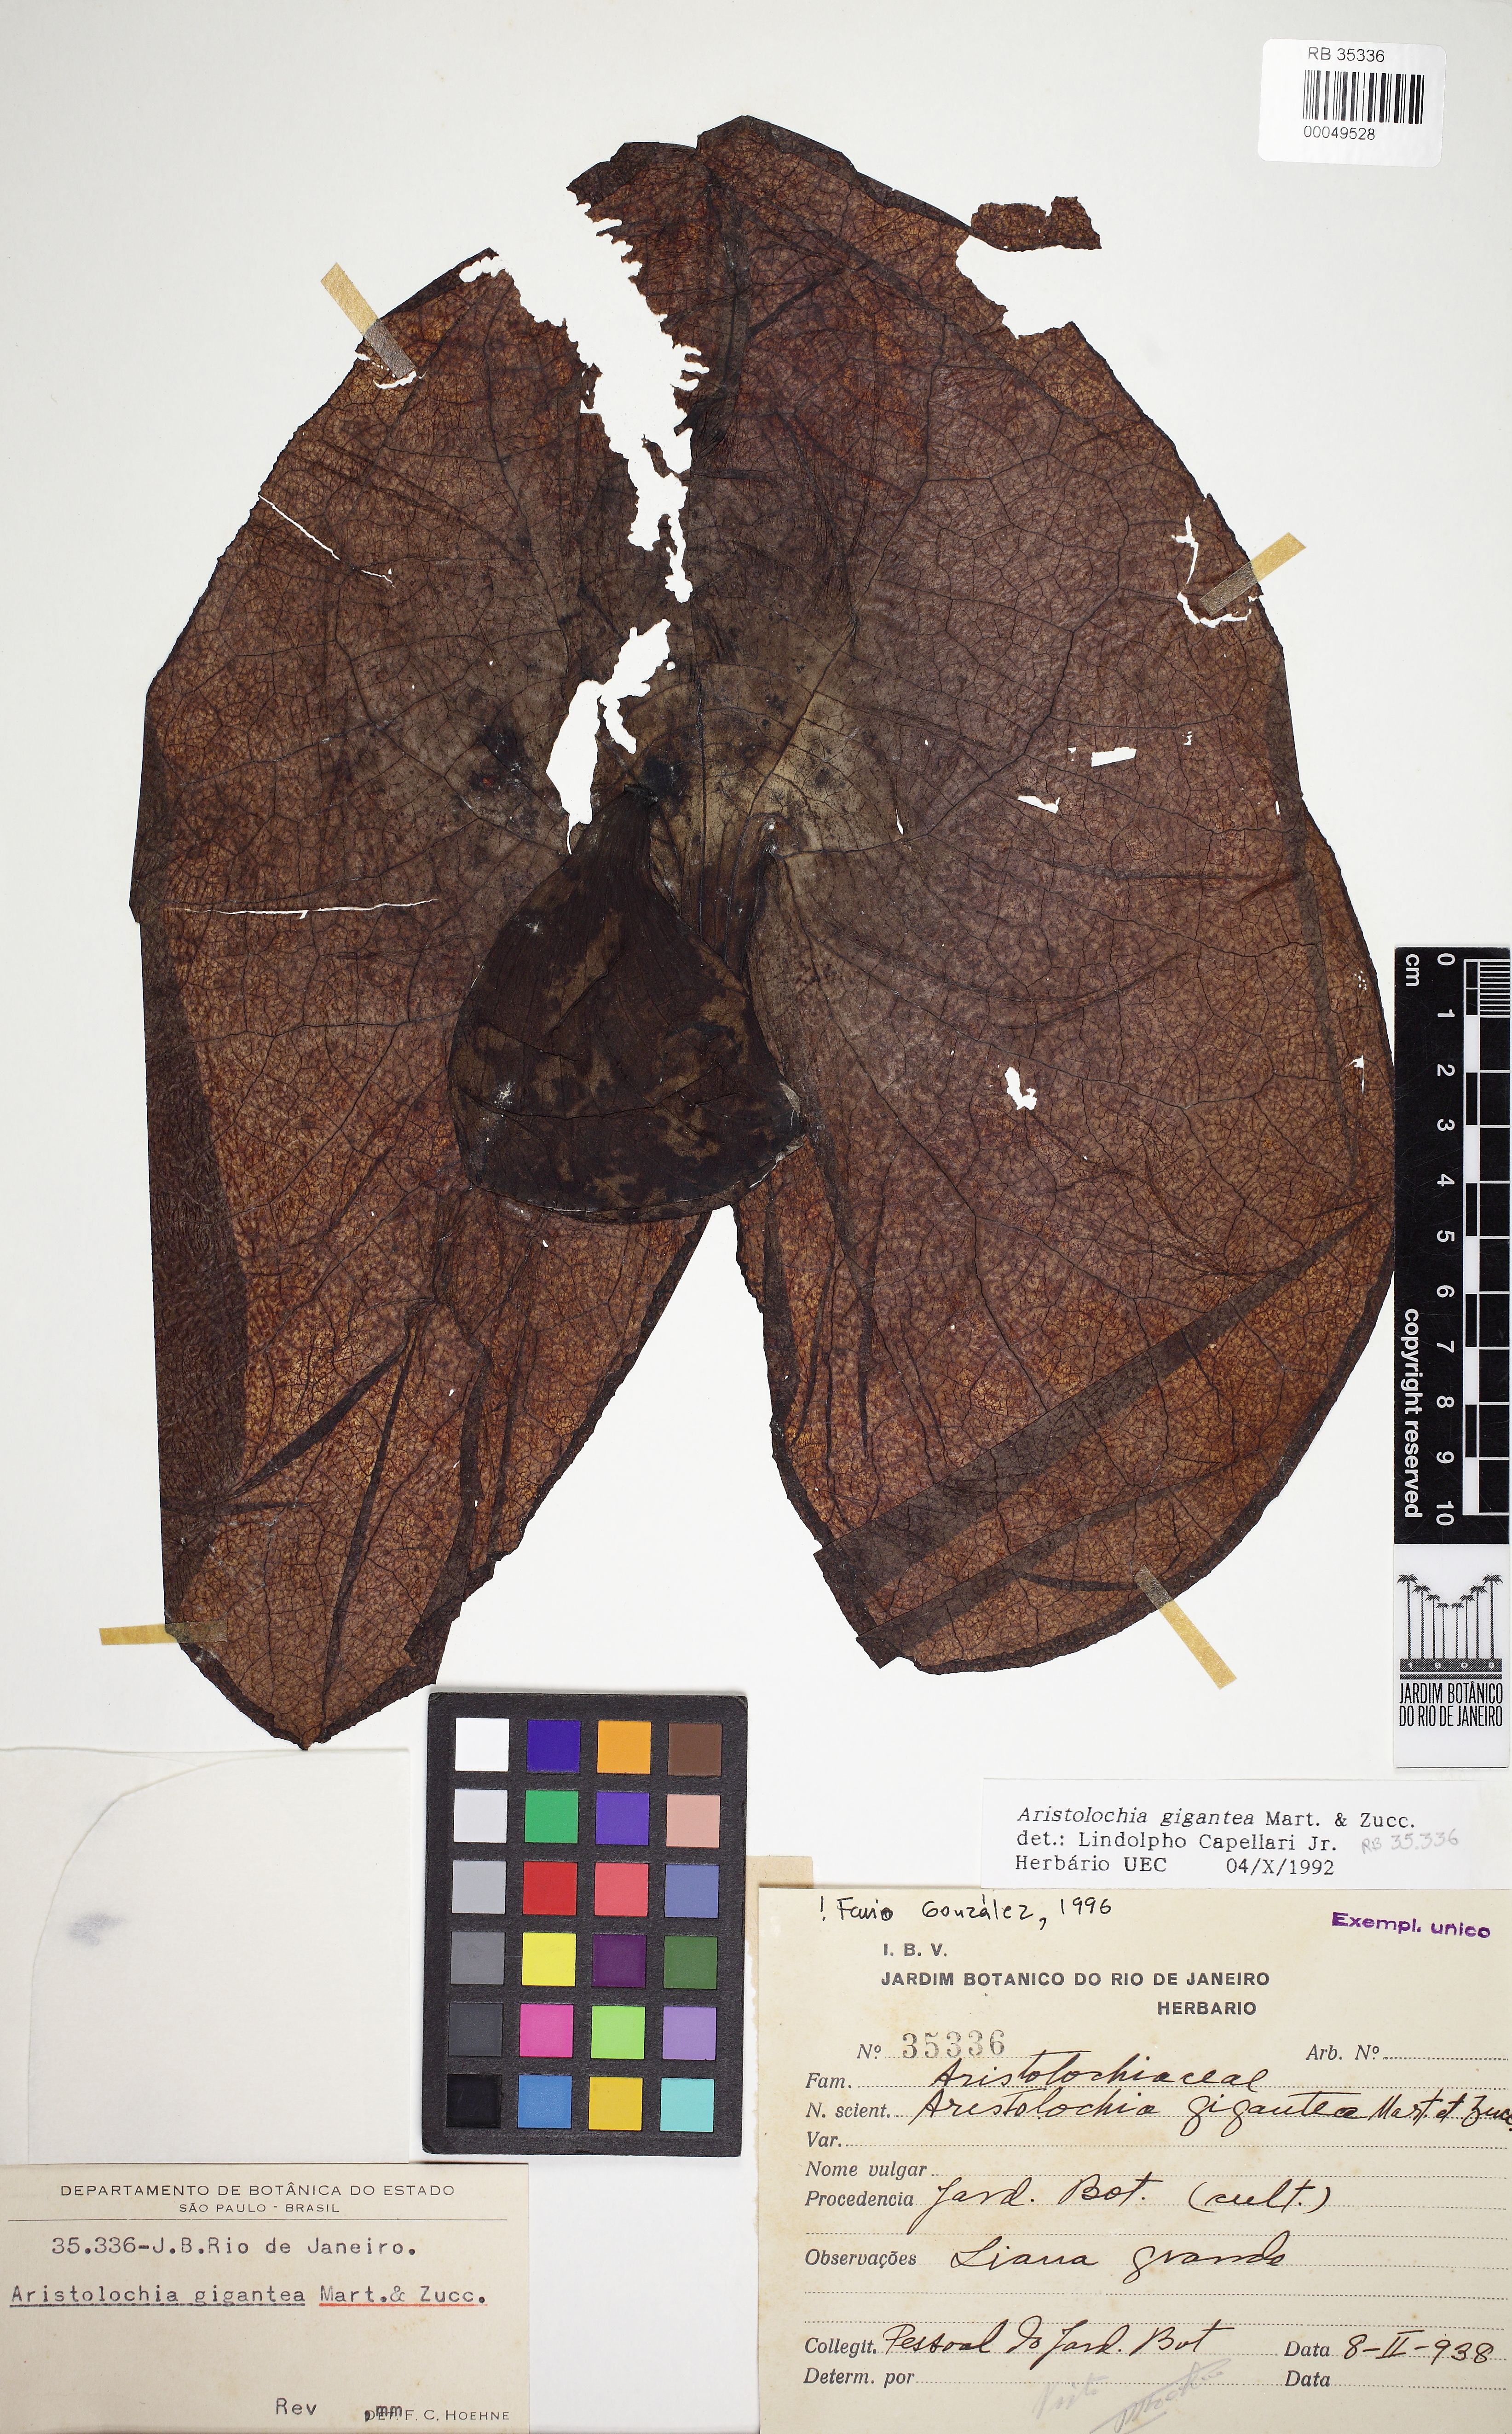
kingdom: Plantae
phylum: Tracheophyta
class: Magnoliopsida
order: Piperales
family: Aristolochiaceae
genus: Aristolochia
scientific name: Aristolochia gigantea
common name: Duckflower
